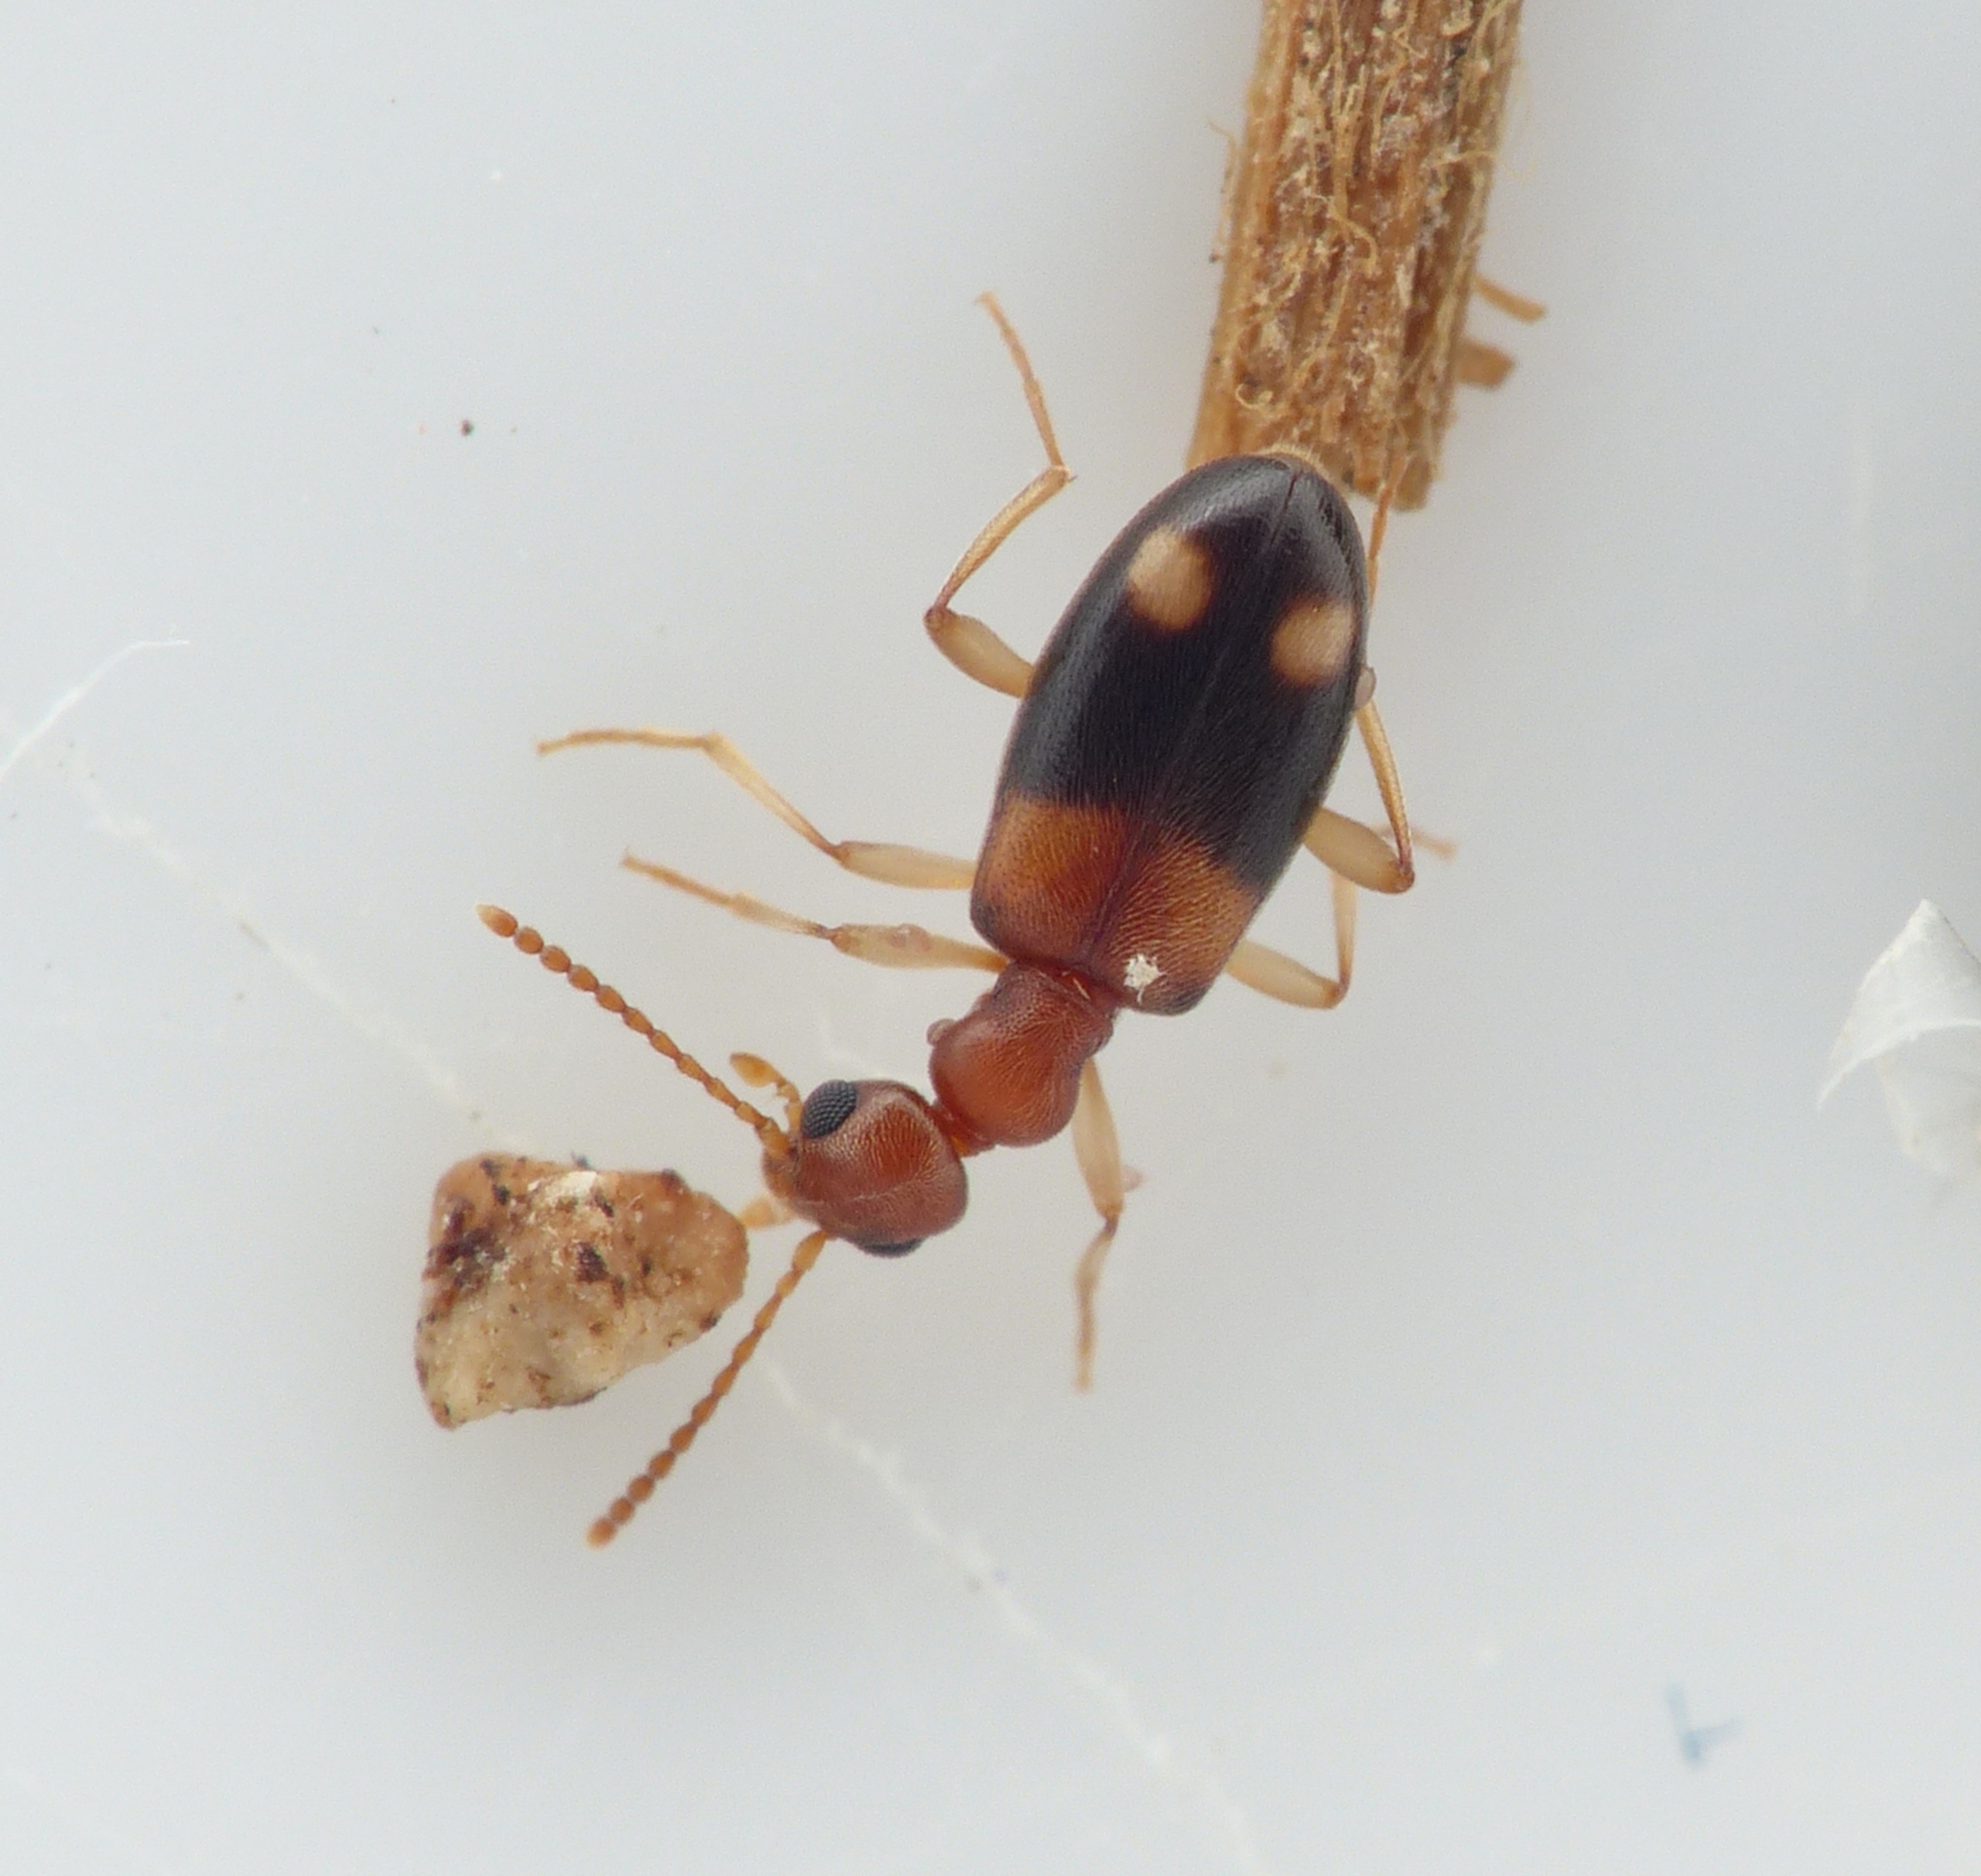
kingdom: Animalia
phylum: Arthropoda
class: Insecta
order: Coleoptera
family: Anthicidae
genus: Stricticollis
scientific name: Stricticollis tobias
